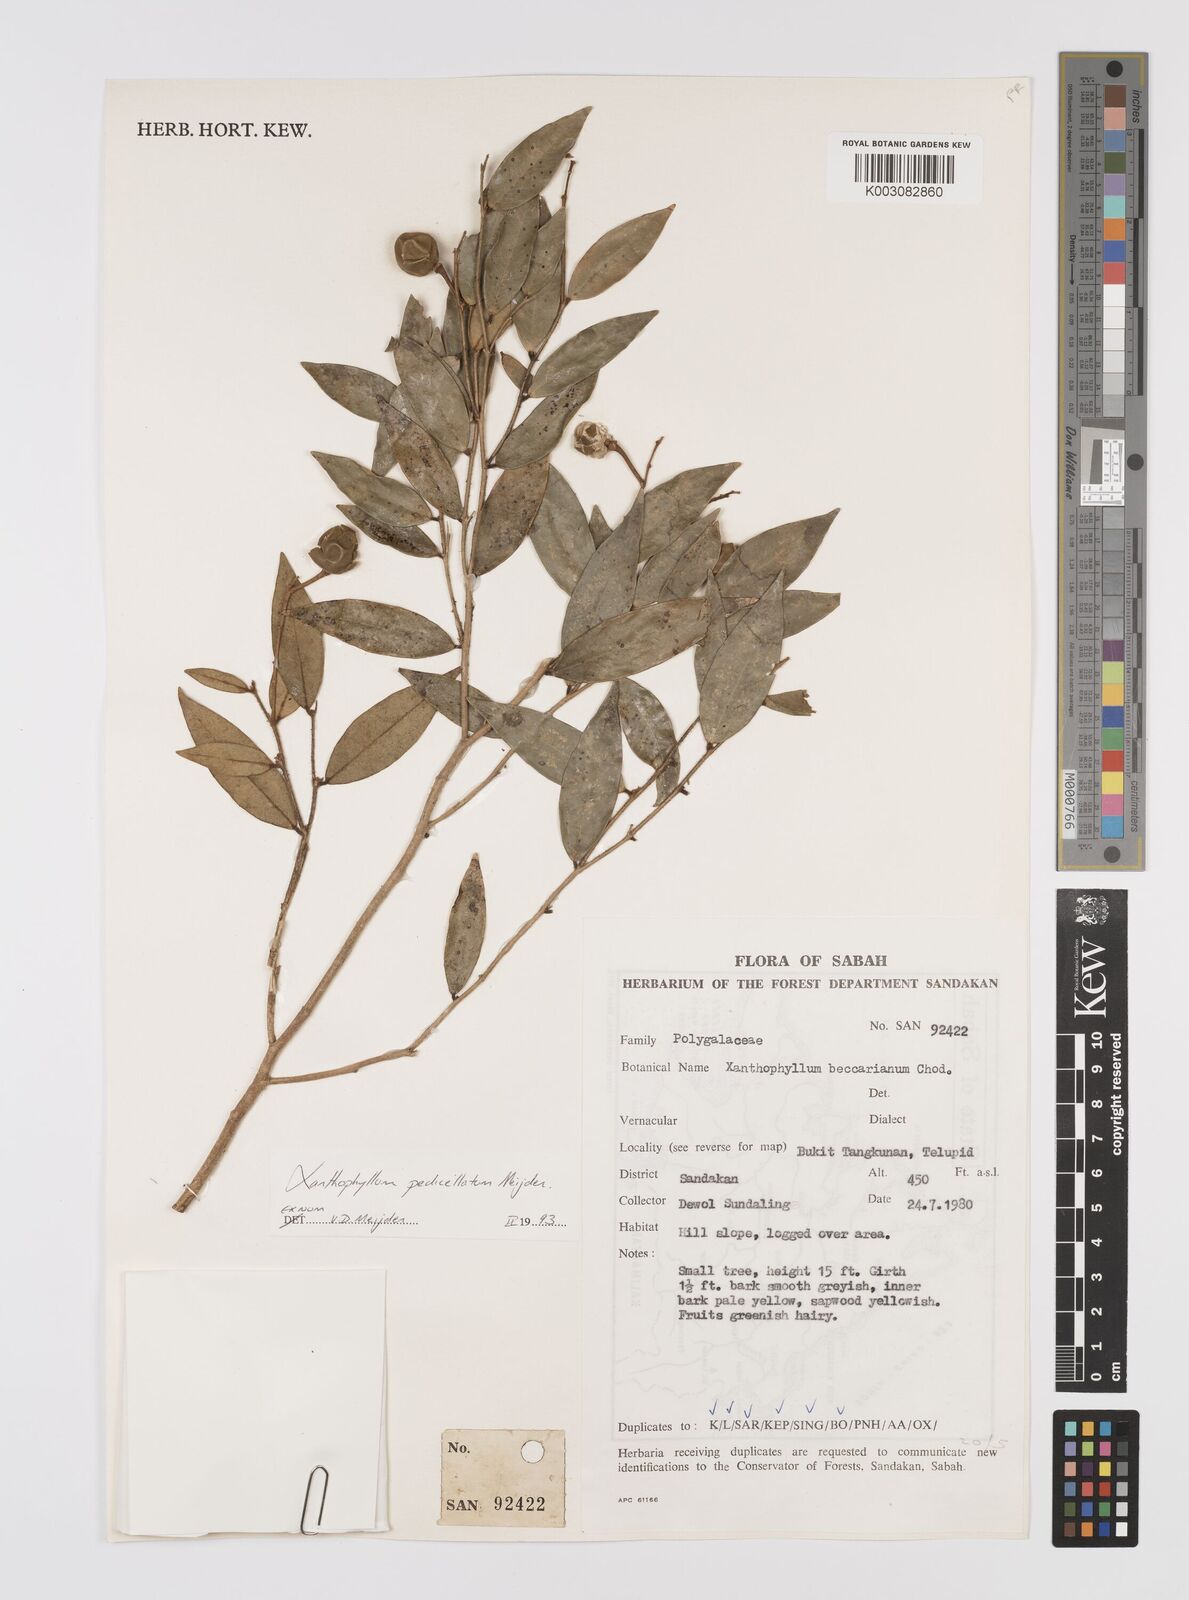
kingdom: Plantae
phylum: Tracheophyta
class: Magnoliopsida
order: Fabales
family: Polygalaceae
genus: Xanthophyllum
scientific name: Xanthophyllum pedicellatum
